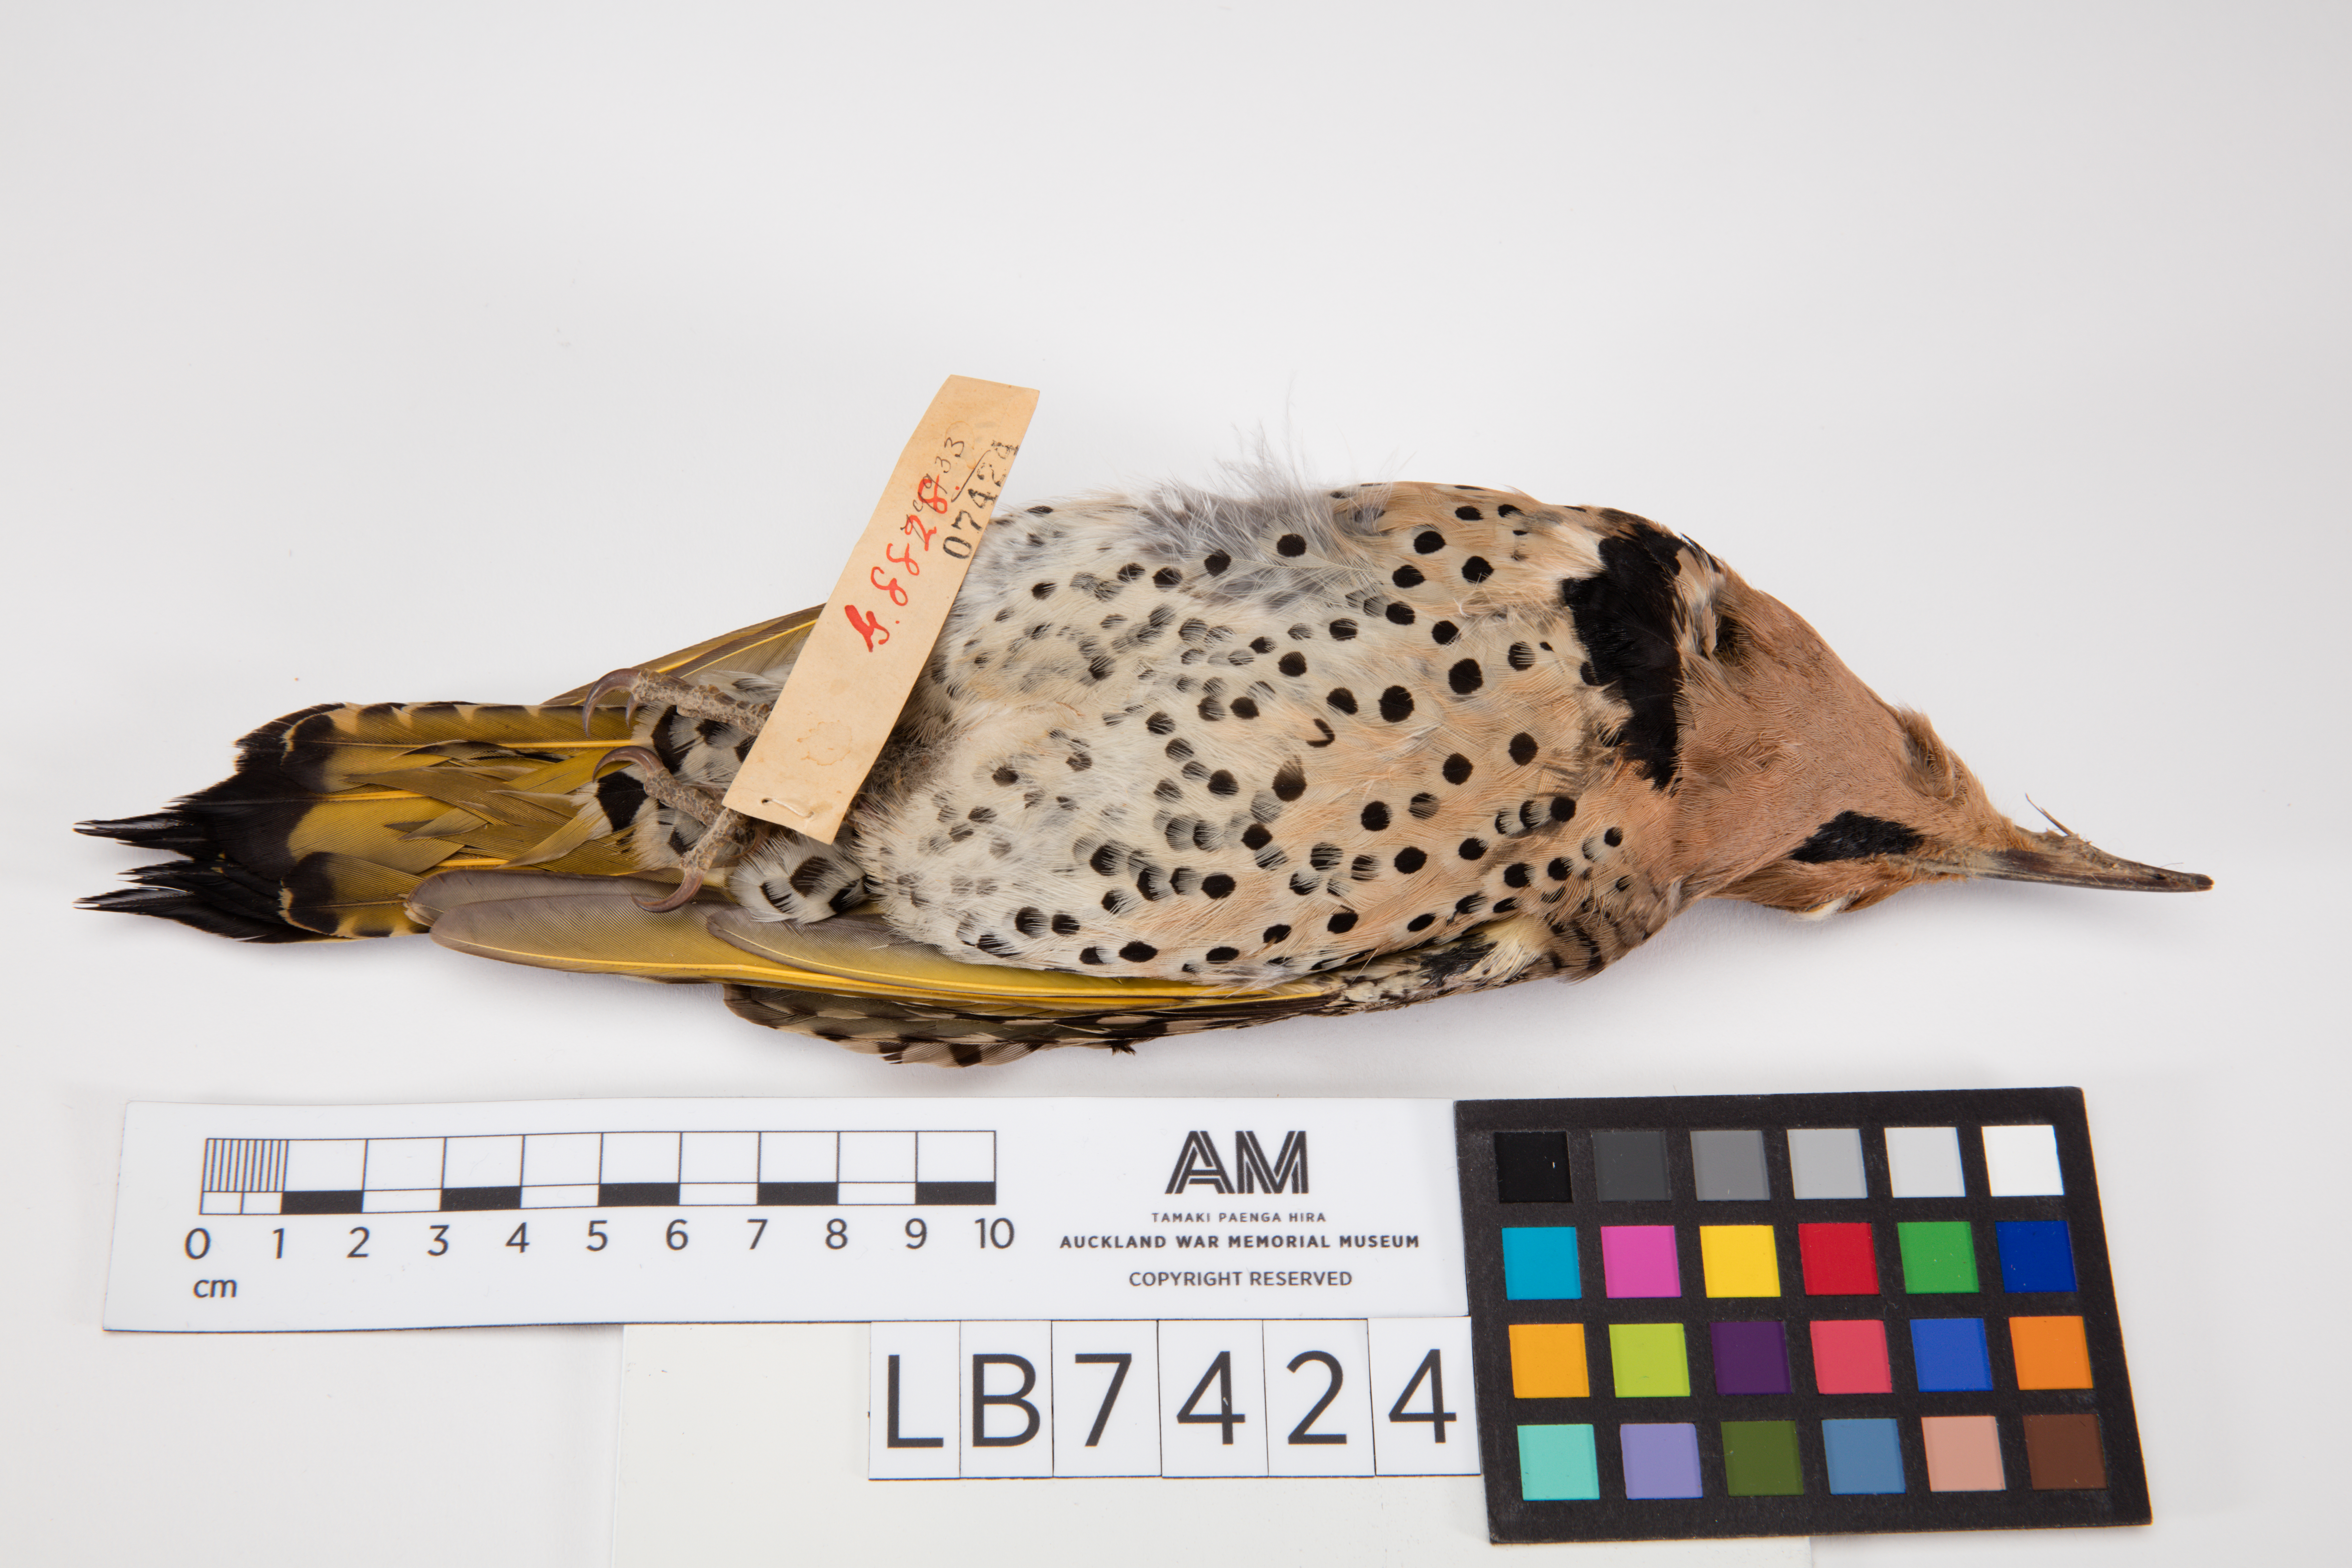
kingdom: Animalia
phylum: Chordata
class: Aves
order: Piciformes
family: Picidae
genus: Colaptes
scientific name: Colaptes auratus
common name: Northern flicker
